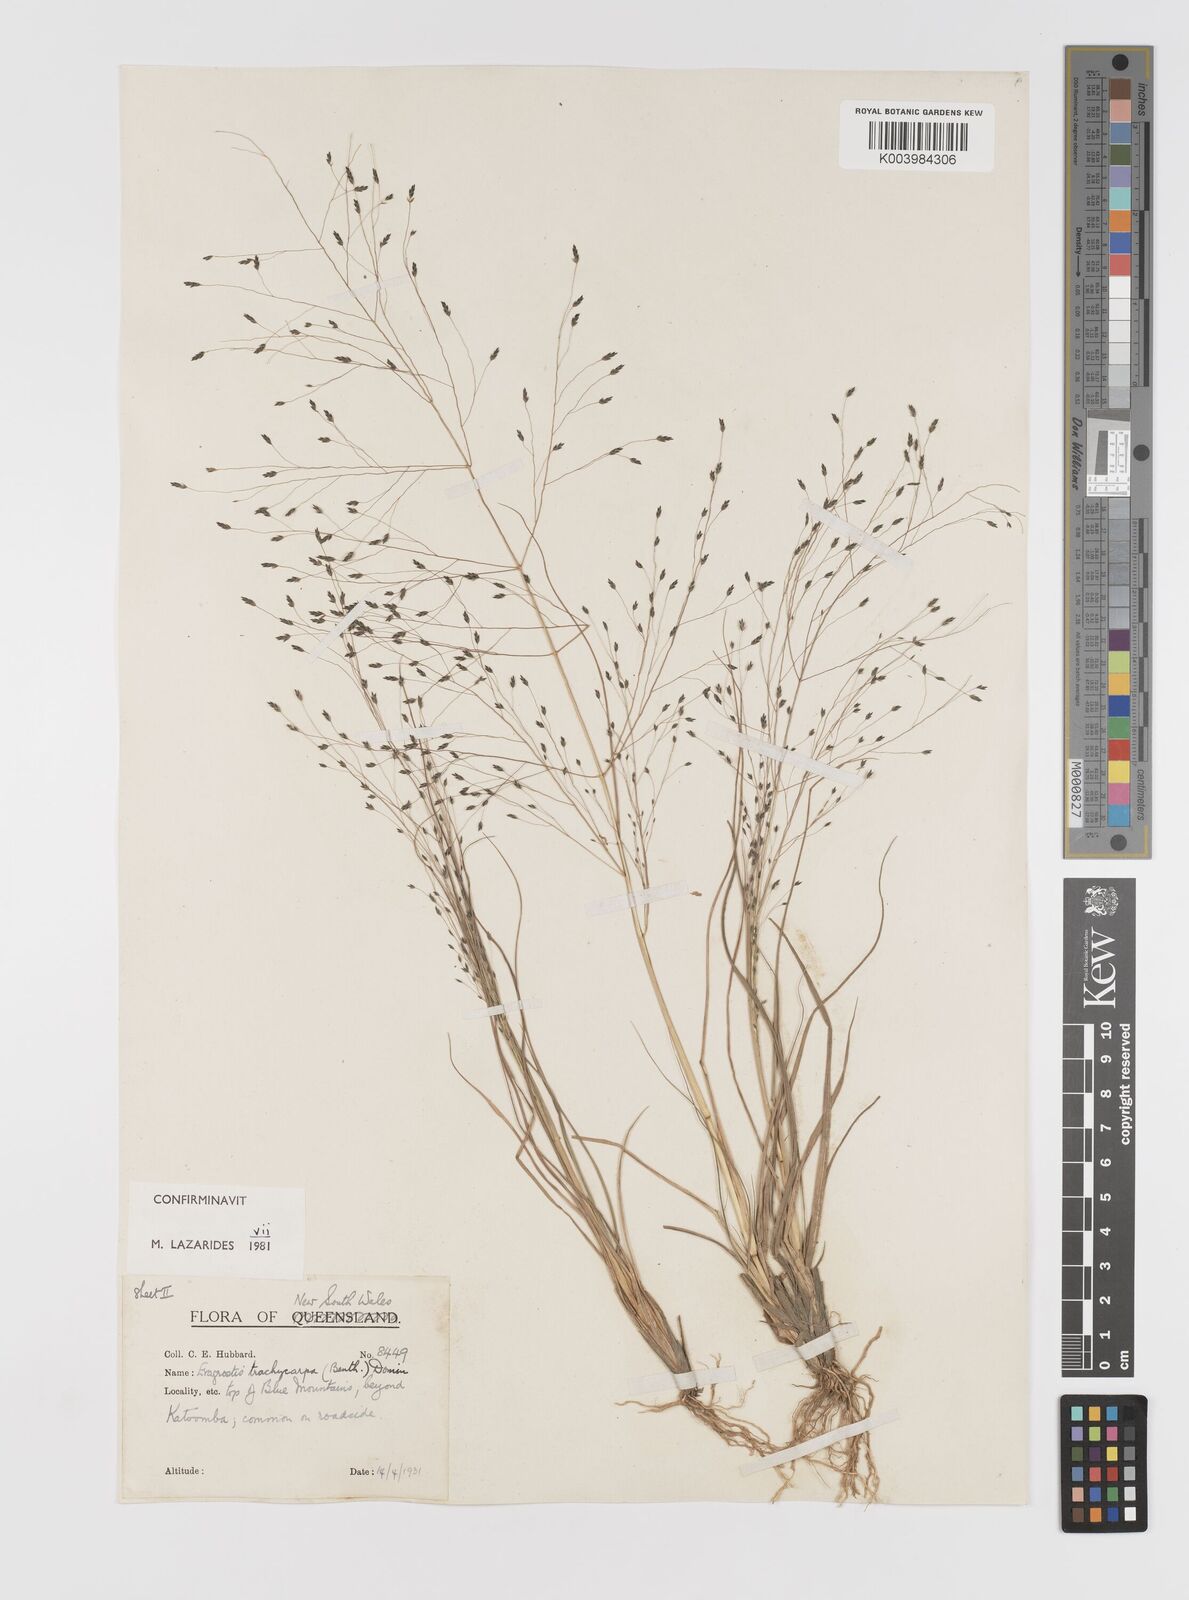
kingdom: Plantae
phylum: Tracheophyta
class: Liliopsida
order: Poales
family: Poaceae
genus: Eragrostis
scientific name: Eragrostis trachycarpa
